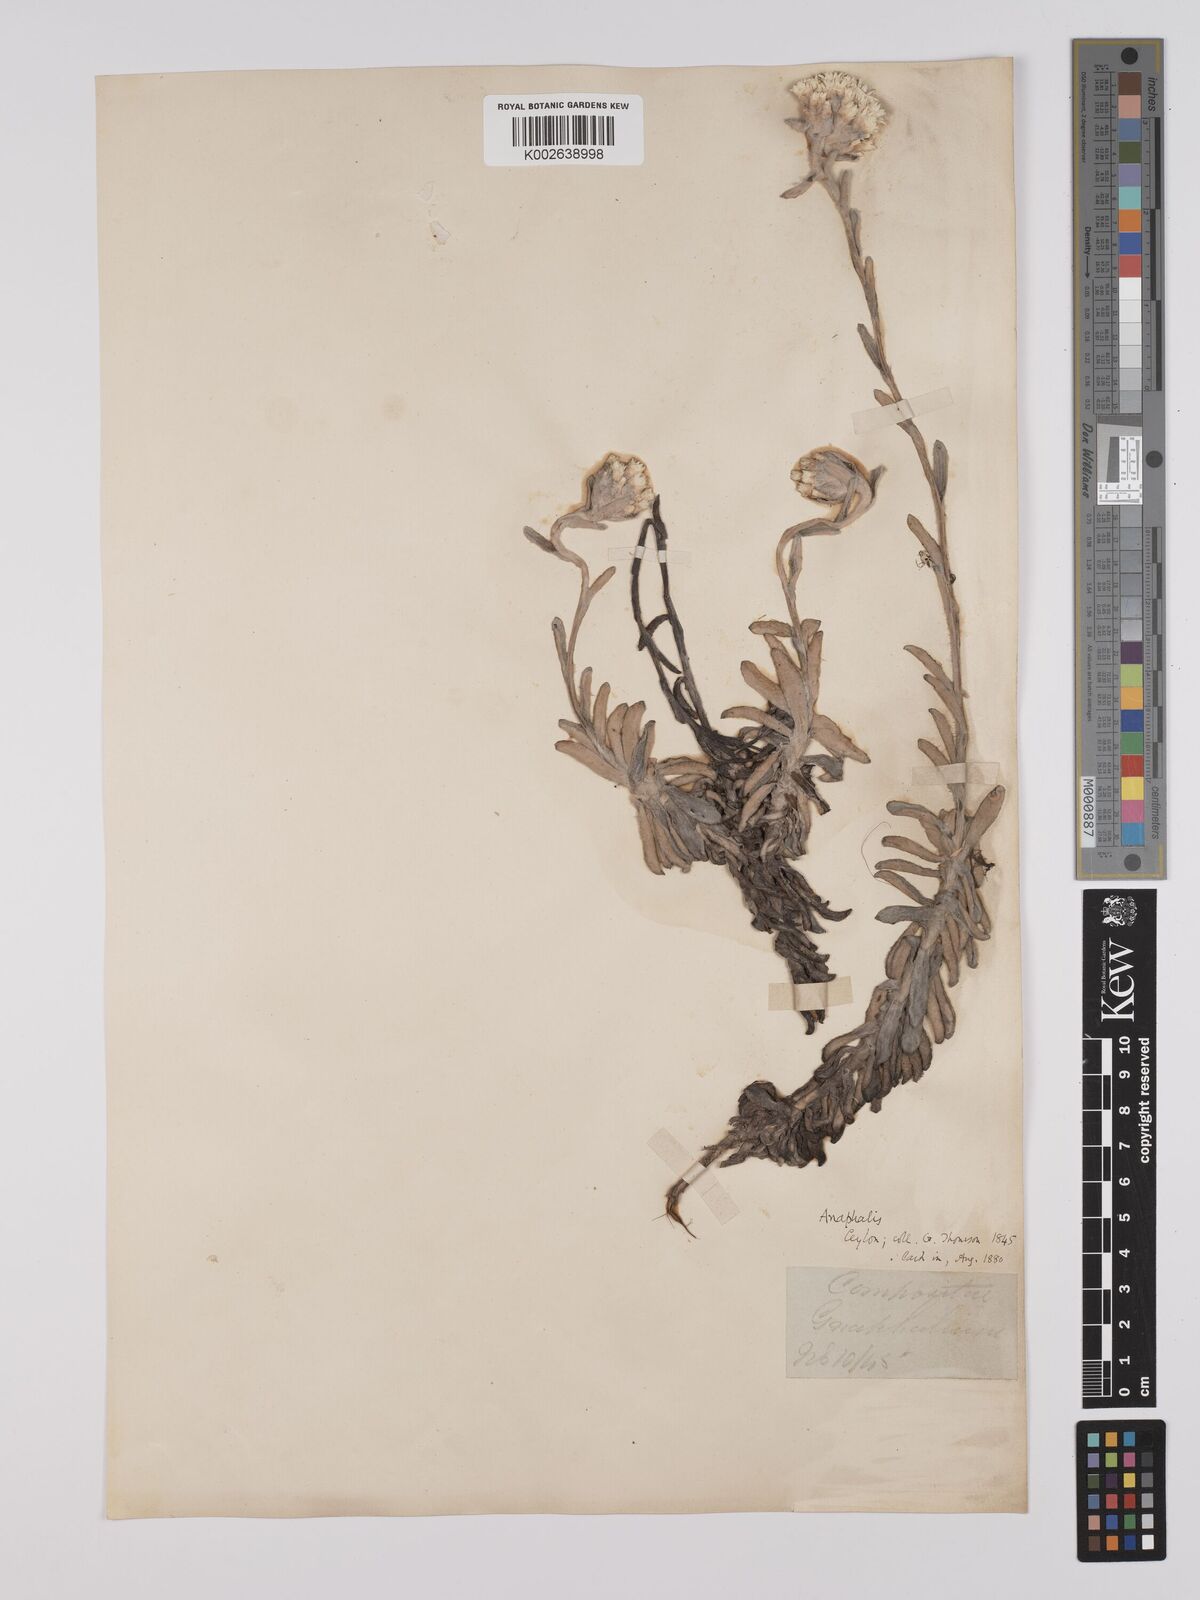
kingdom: Plantae
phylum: Tracheophyta
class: Magnoliopsida
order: Asterales
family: Asteraceae
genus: Anaphalis
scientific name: Anaphalis thwaitesii
